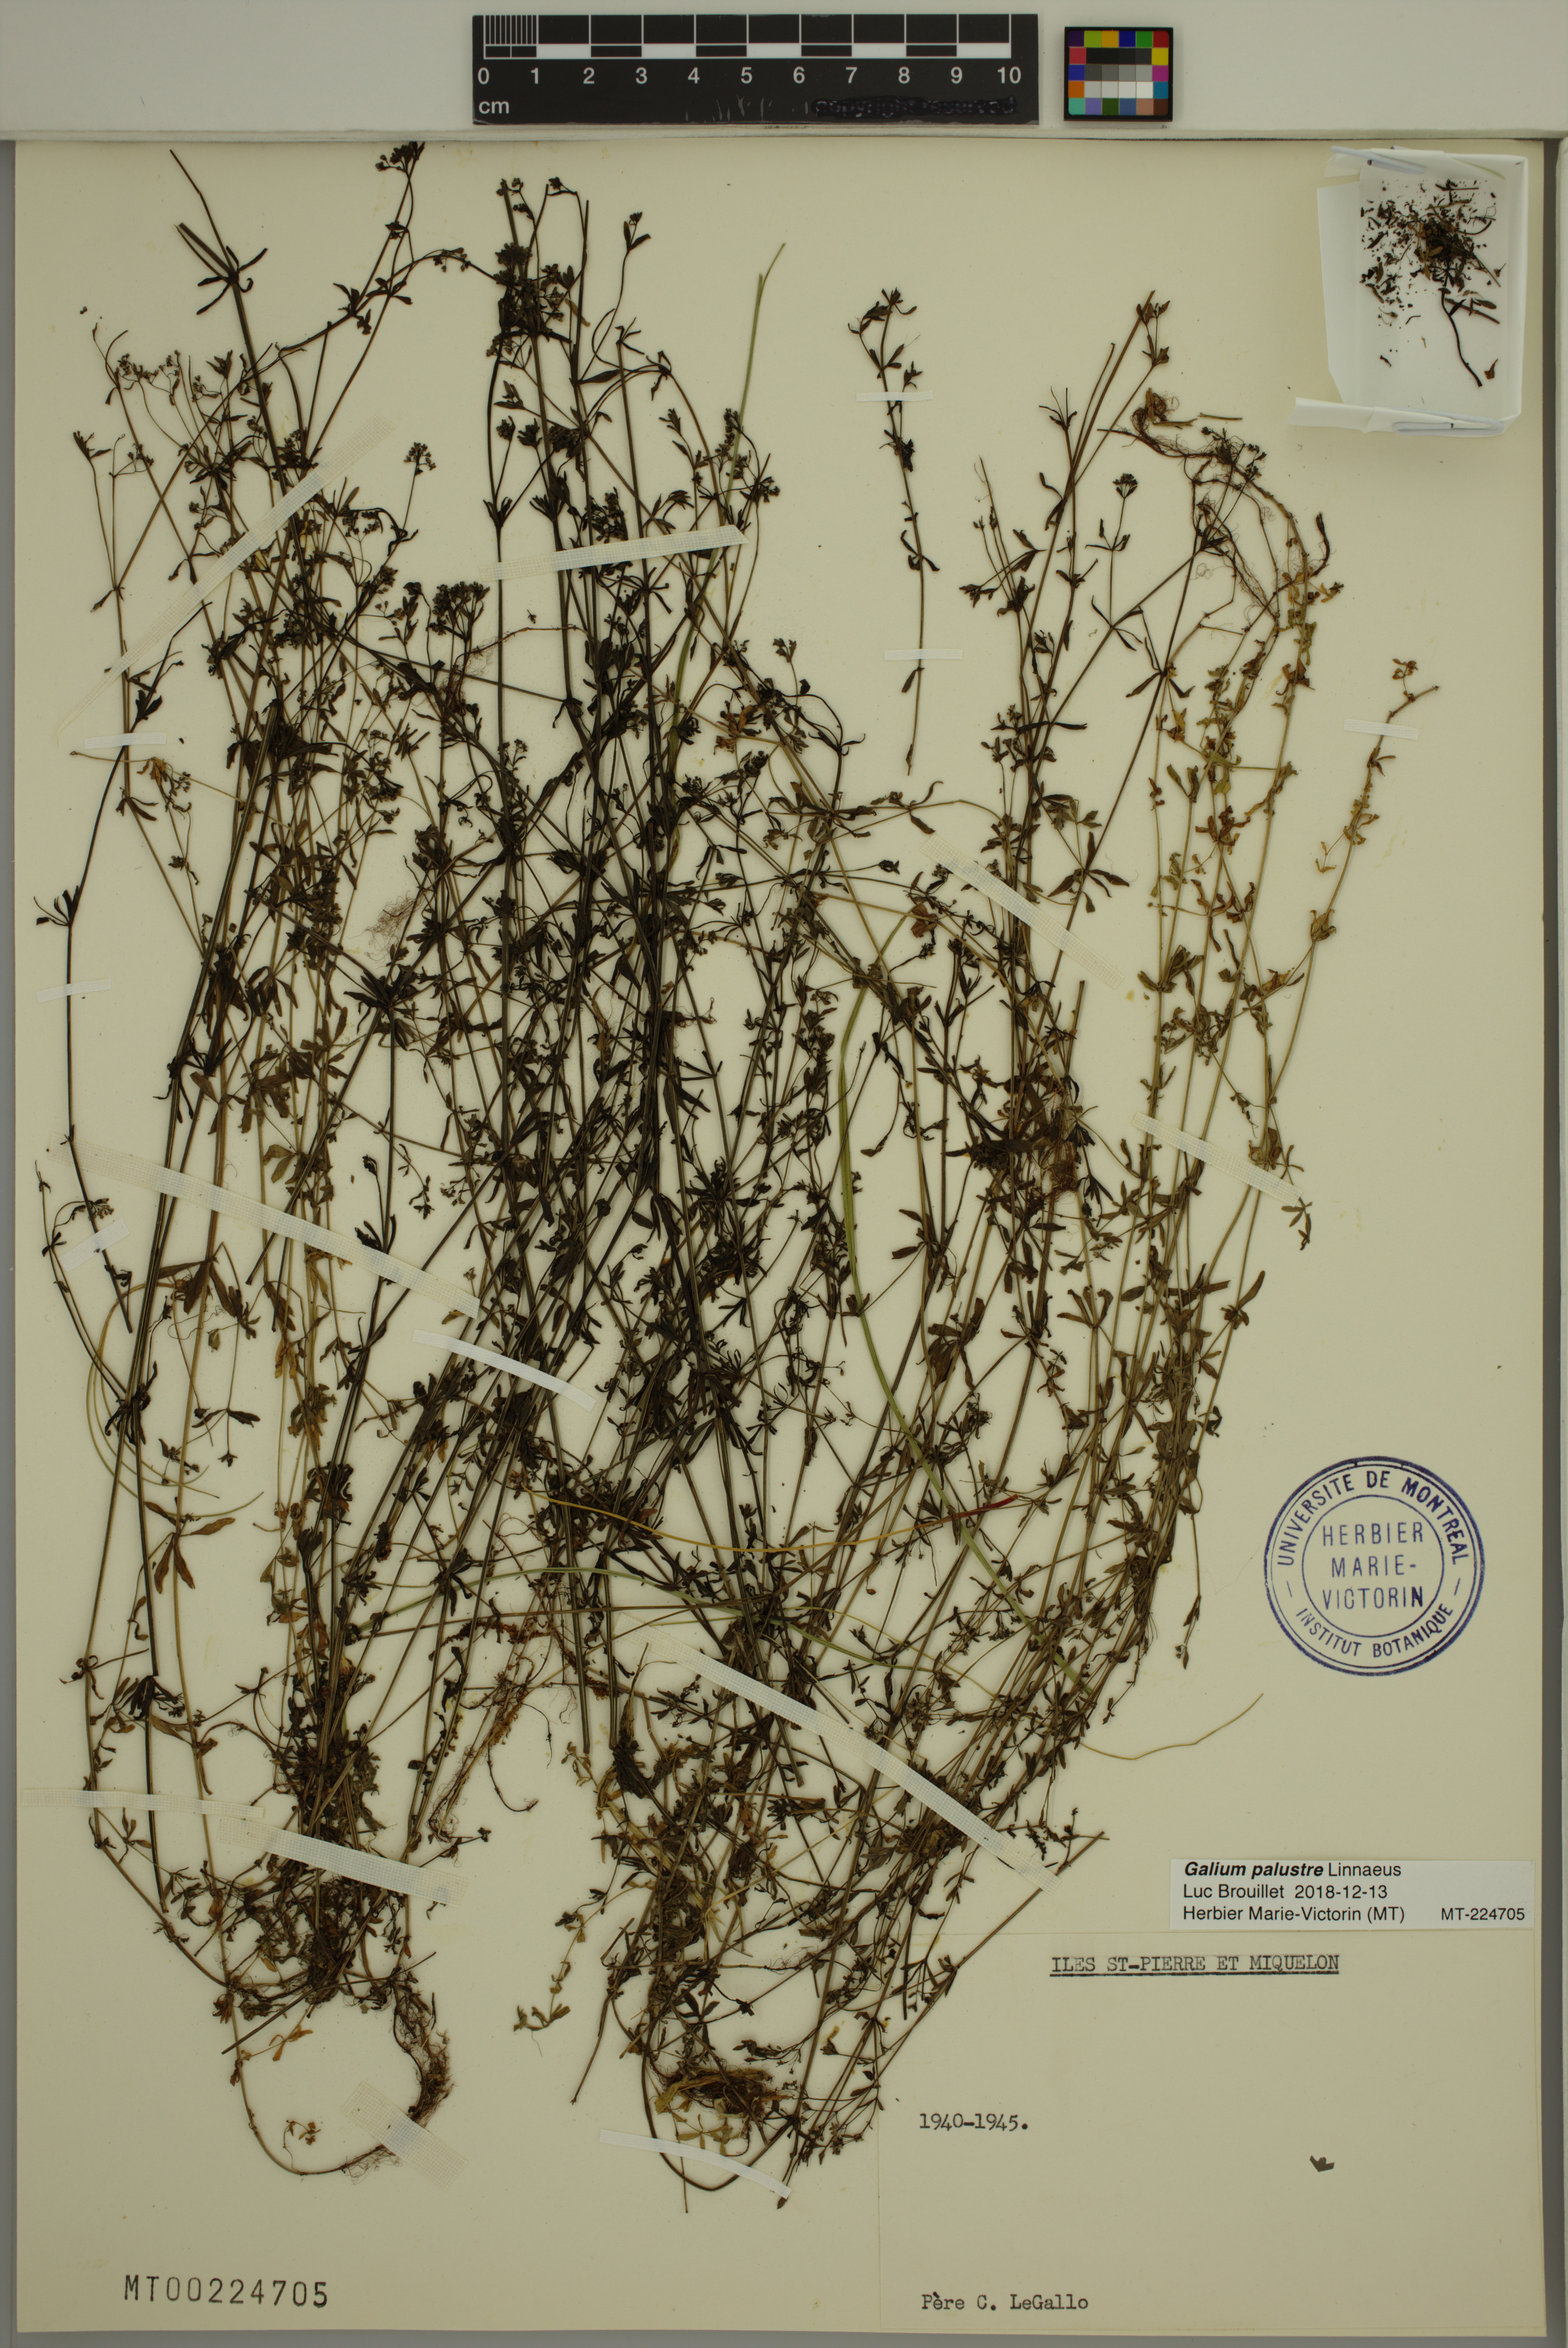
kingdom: Plantae
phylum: Tracheophyta
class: Magnoliopsida
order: Gentianales
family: Rubiaceae
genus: Galium
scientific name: Galium palustre
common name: Common marsh-bedstraw
